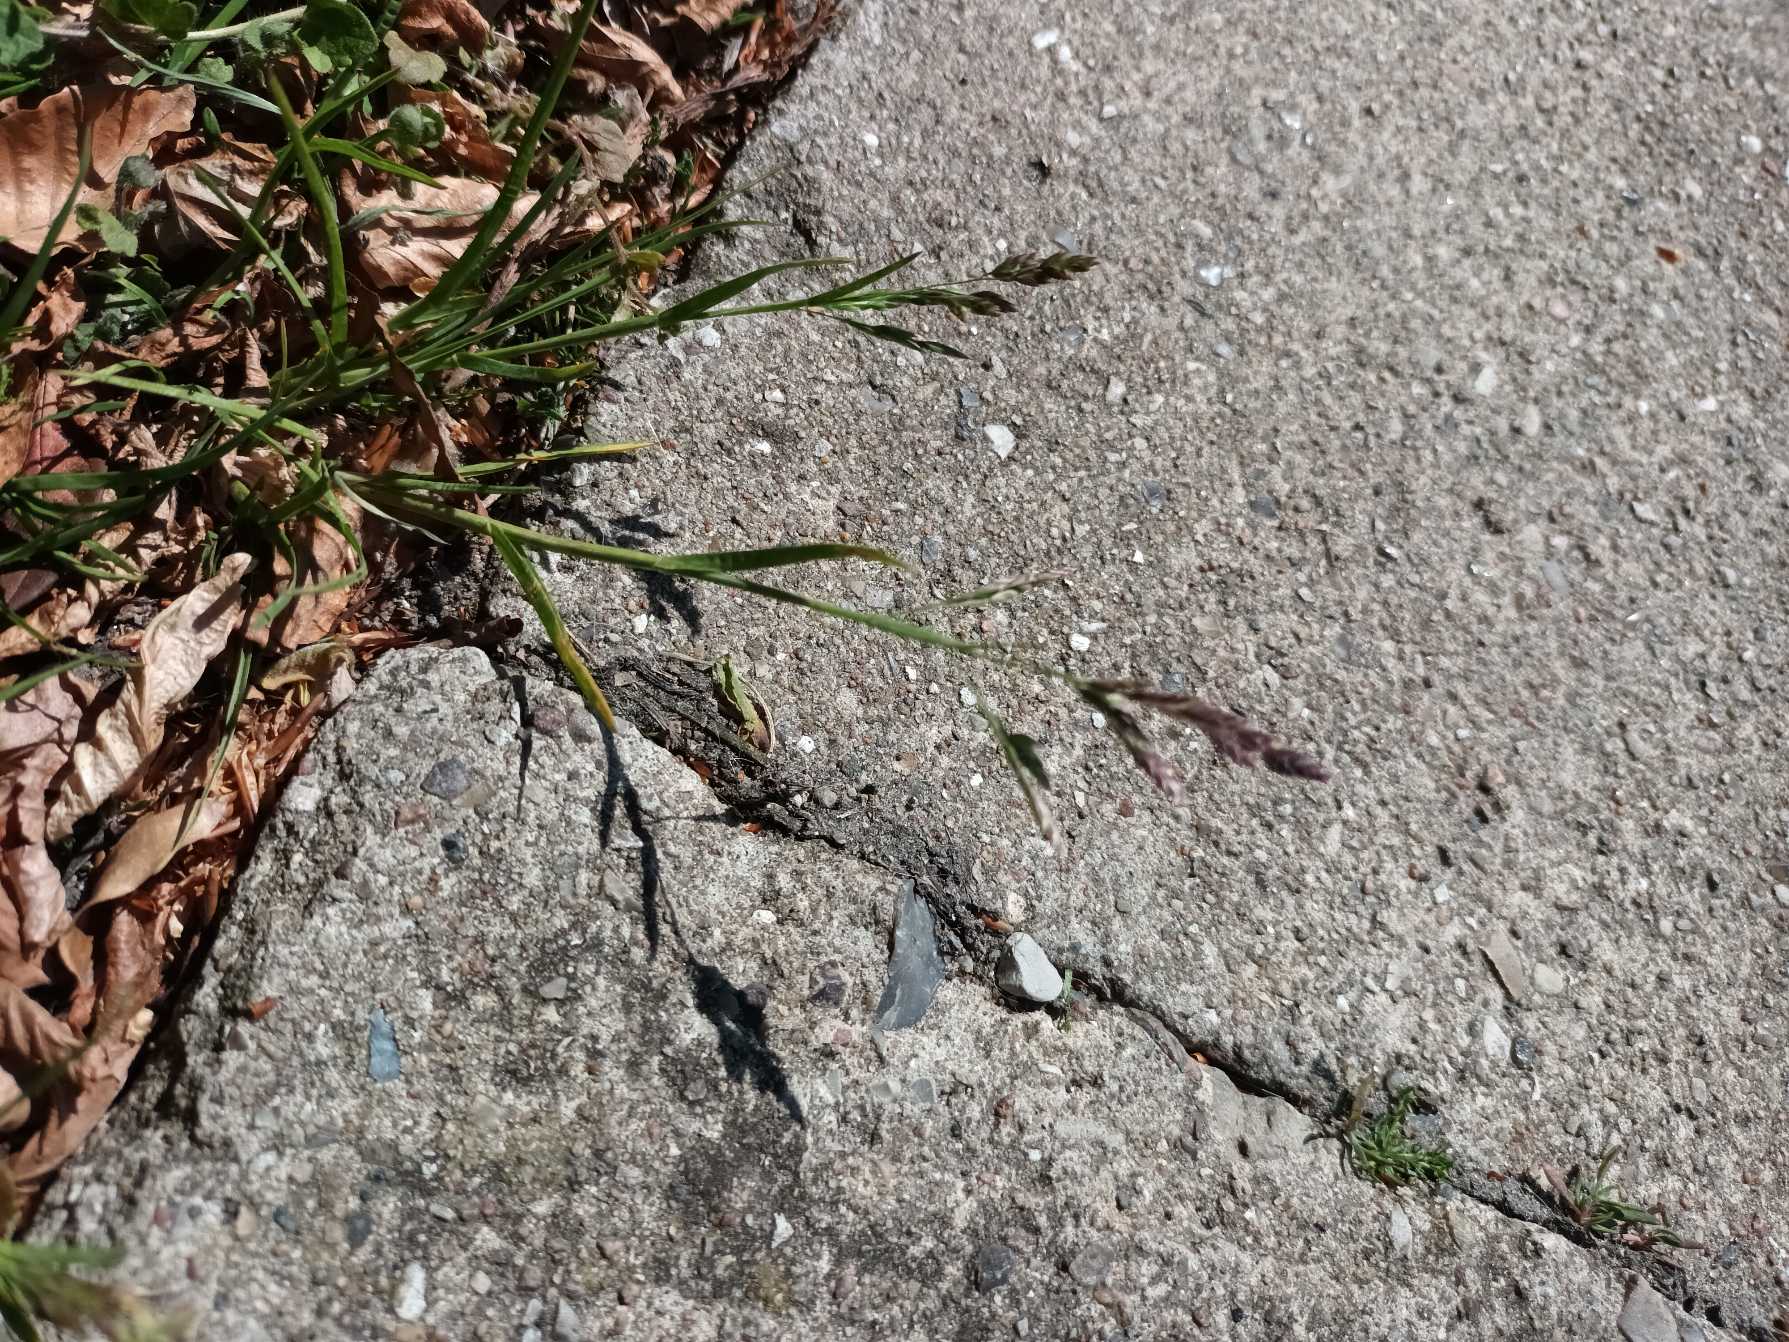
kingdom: Plantae
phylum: Tracheophyta
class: Liliopsida
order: Poales
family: Poaceae
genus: Poa
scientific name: Poa annua
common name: Enårig rapgræs
